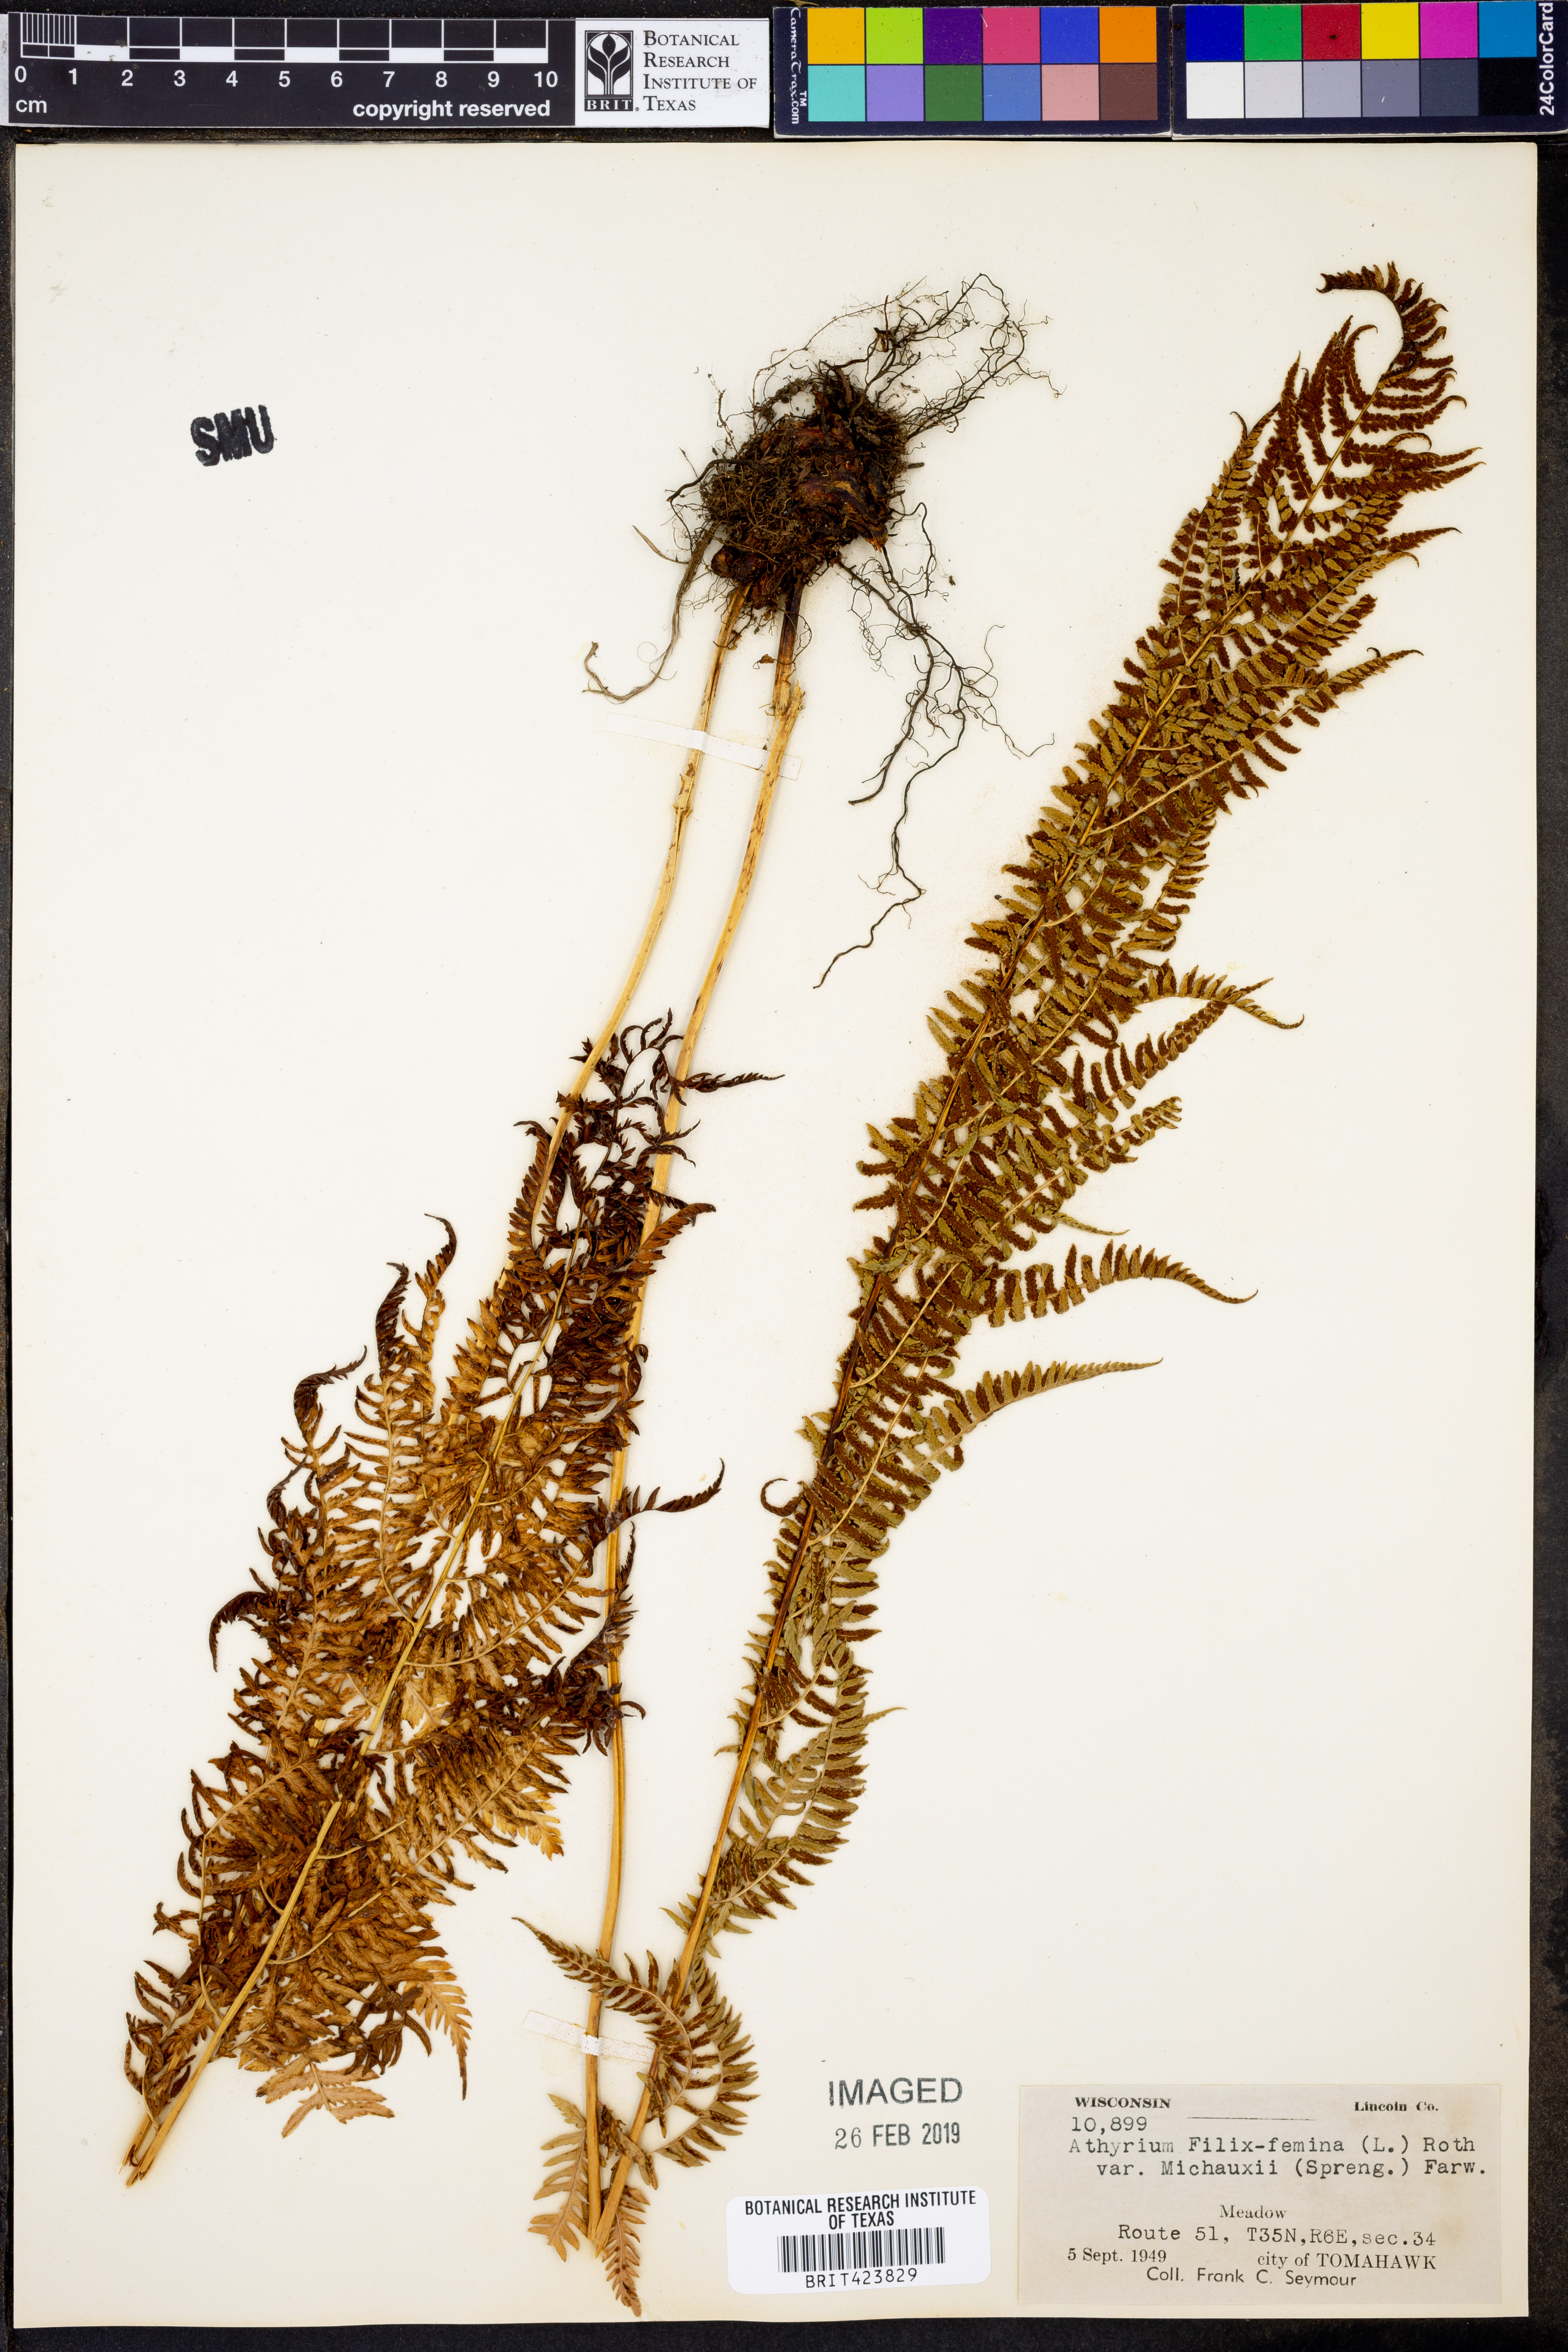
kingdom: Plantae
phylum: Tracheophyta
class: Polypodiopsida
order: Polypodiales
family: Athyriaceae
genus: Athyrium
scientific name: Athyrium angustum
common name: Northern lady fern
